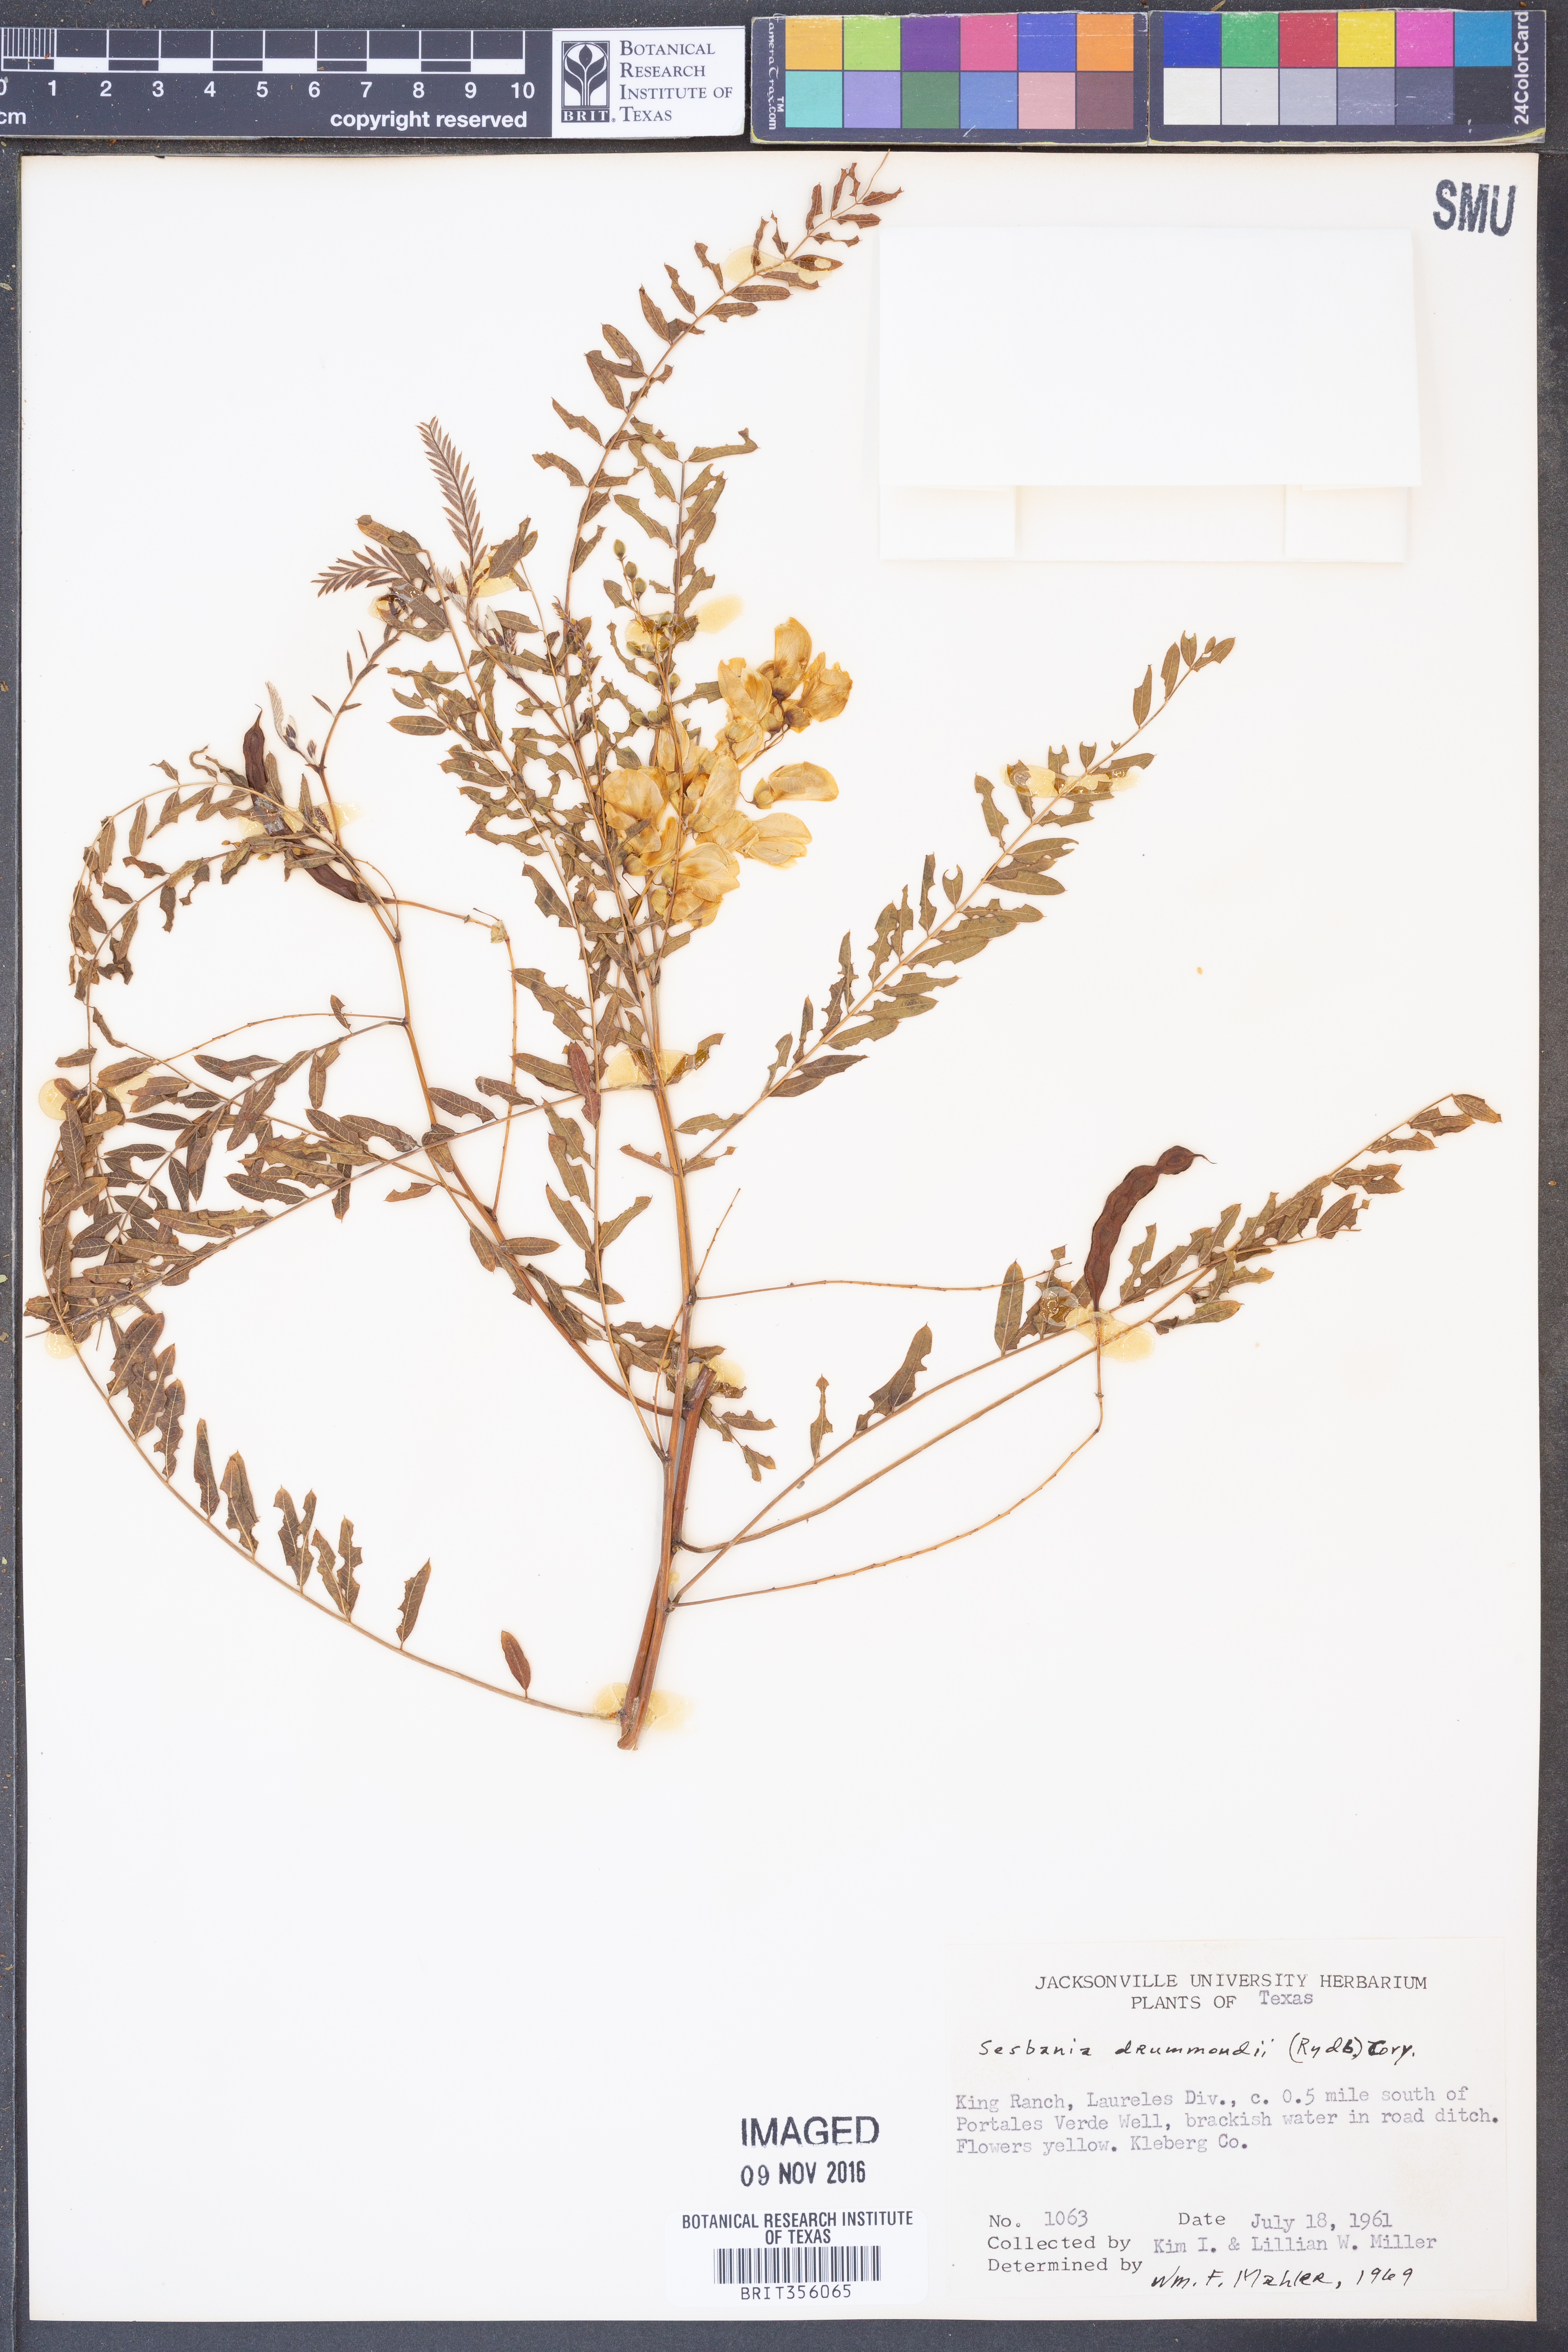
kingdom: Plantae
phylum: Tracheophyta
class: Magnoliopsida
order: Fabales
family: Fabaceae
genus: Sesbania
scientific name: Sesbania drummondii
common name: Poison-bean
